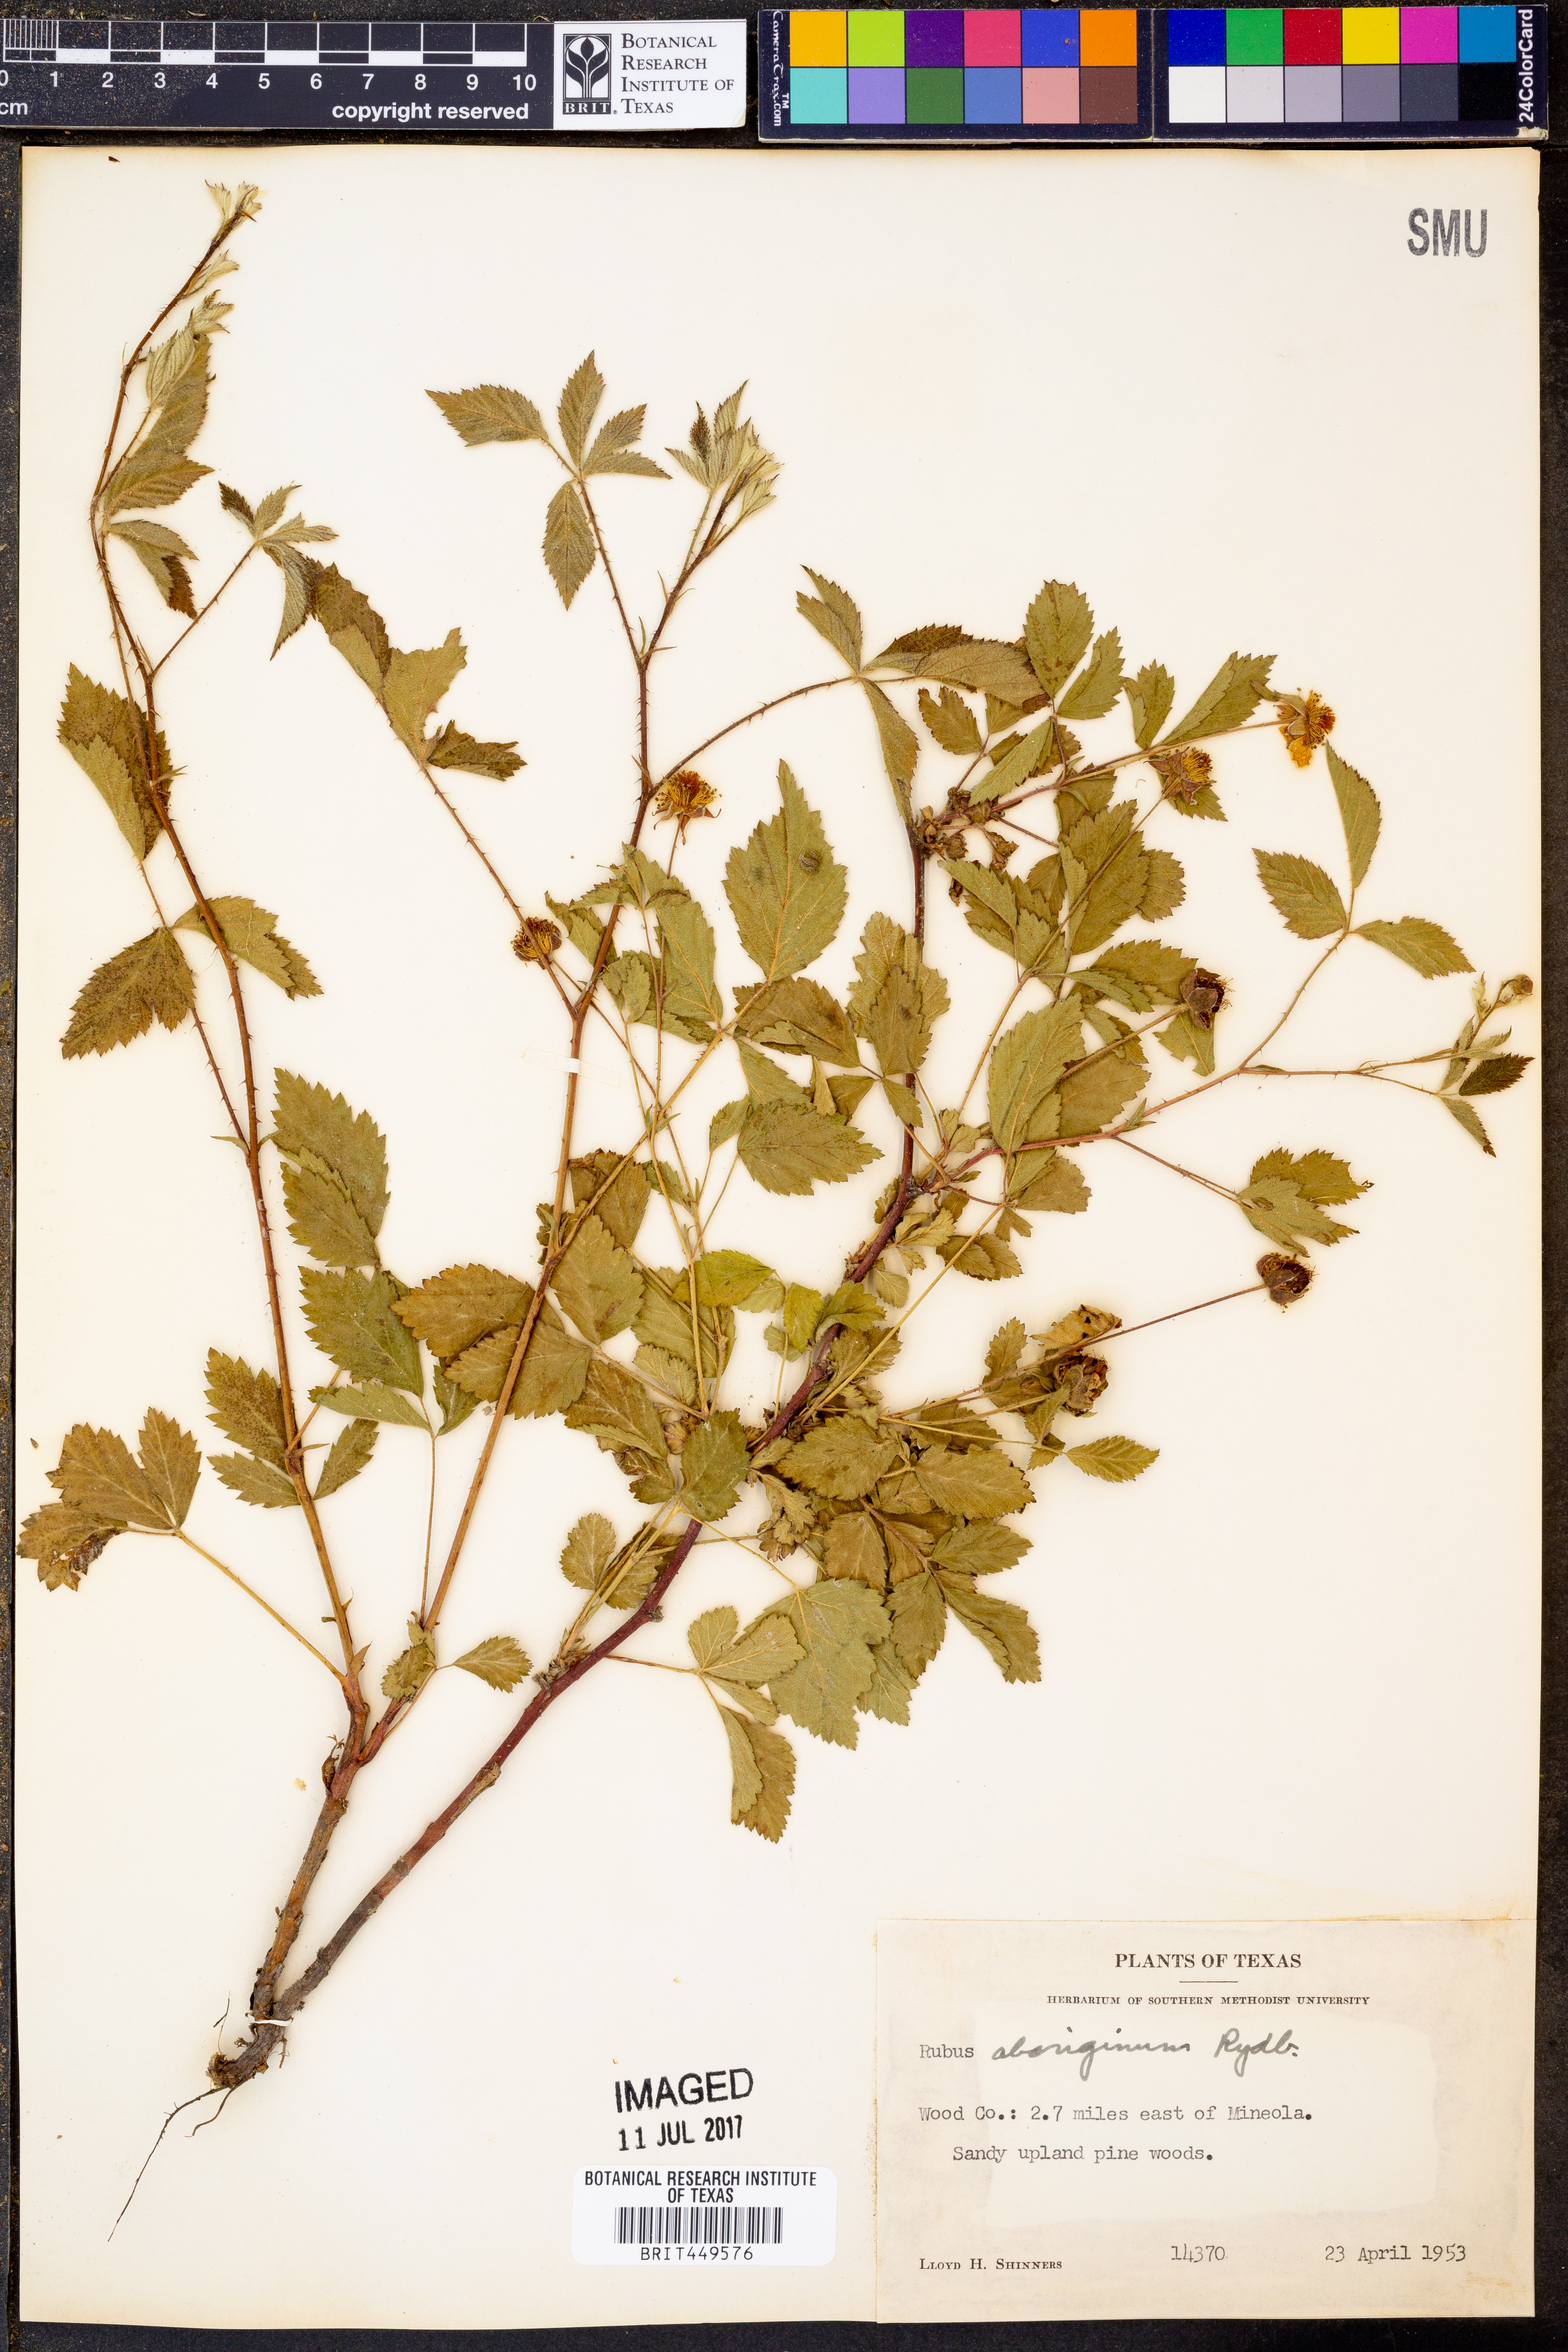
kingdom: Plantae
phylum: Tracheophyta
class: Magnoliopsida
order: Rosales
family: Rosaceae
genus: Rubus
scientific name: Rubus aboriginum
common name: Mayes dewberry
